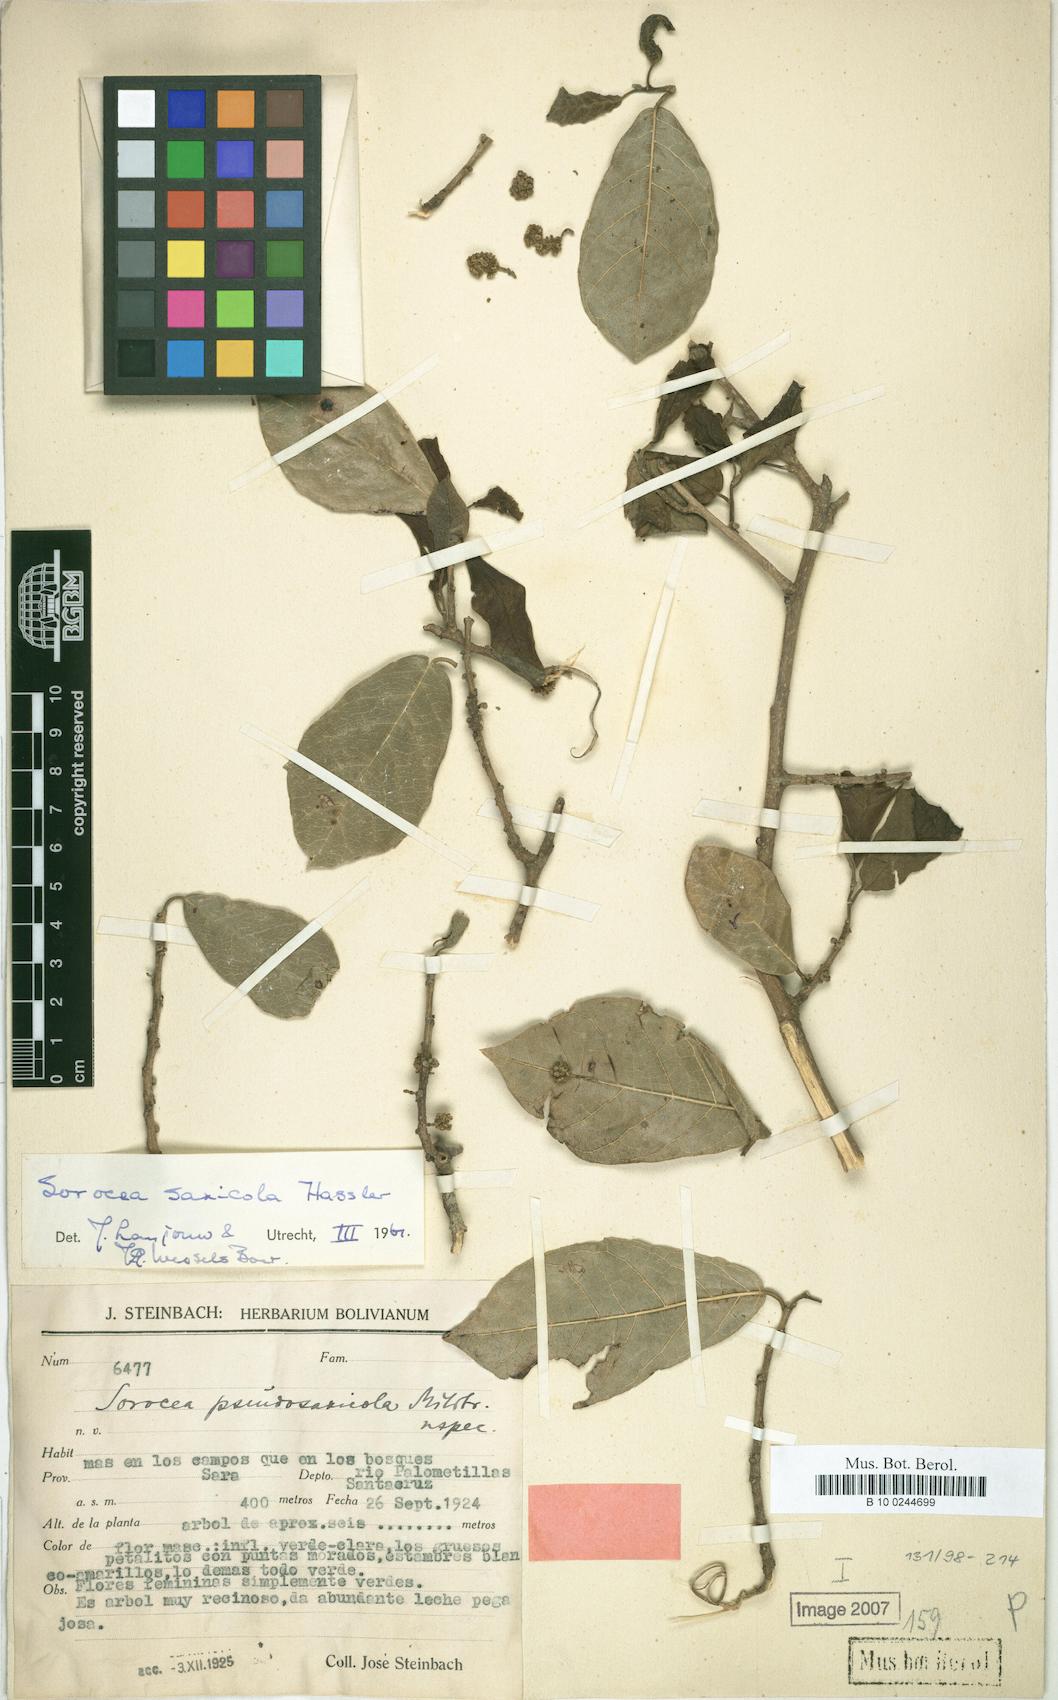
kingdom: Plantae
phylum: Tracheophyta
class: Magnoliopsida
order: Rosales
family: Moraceae
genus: Sorocea
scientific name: Sorocea sprucei
